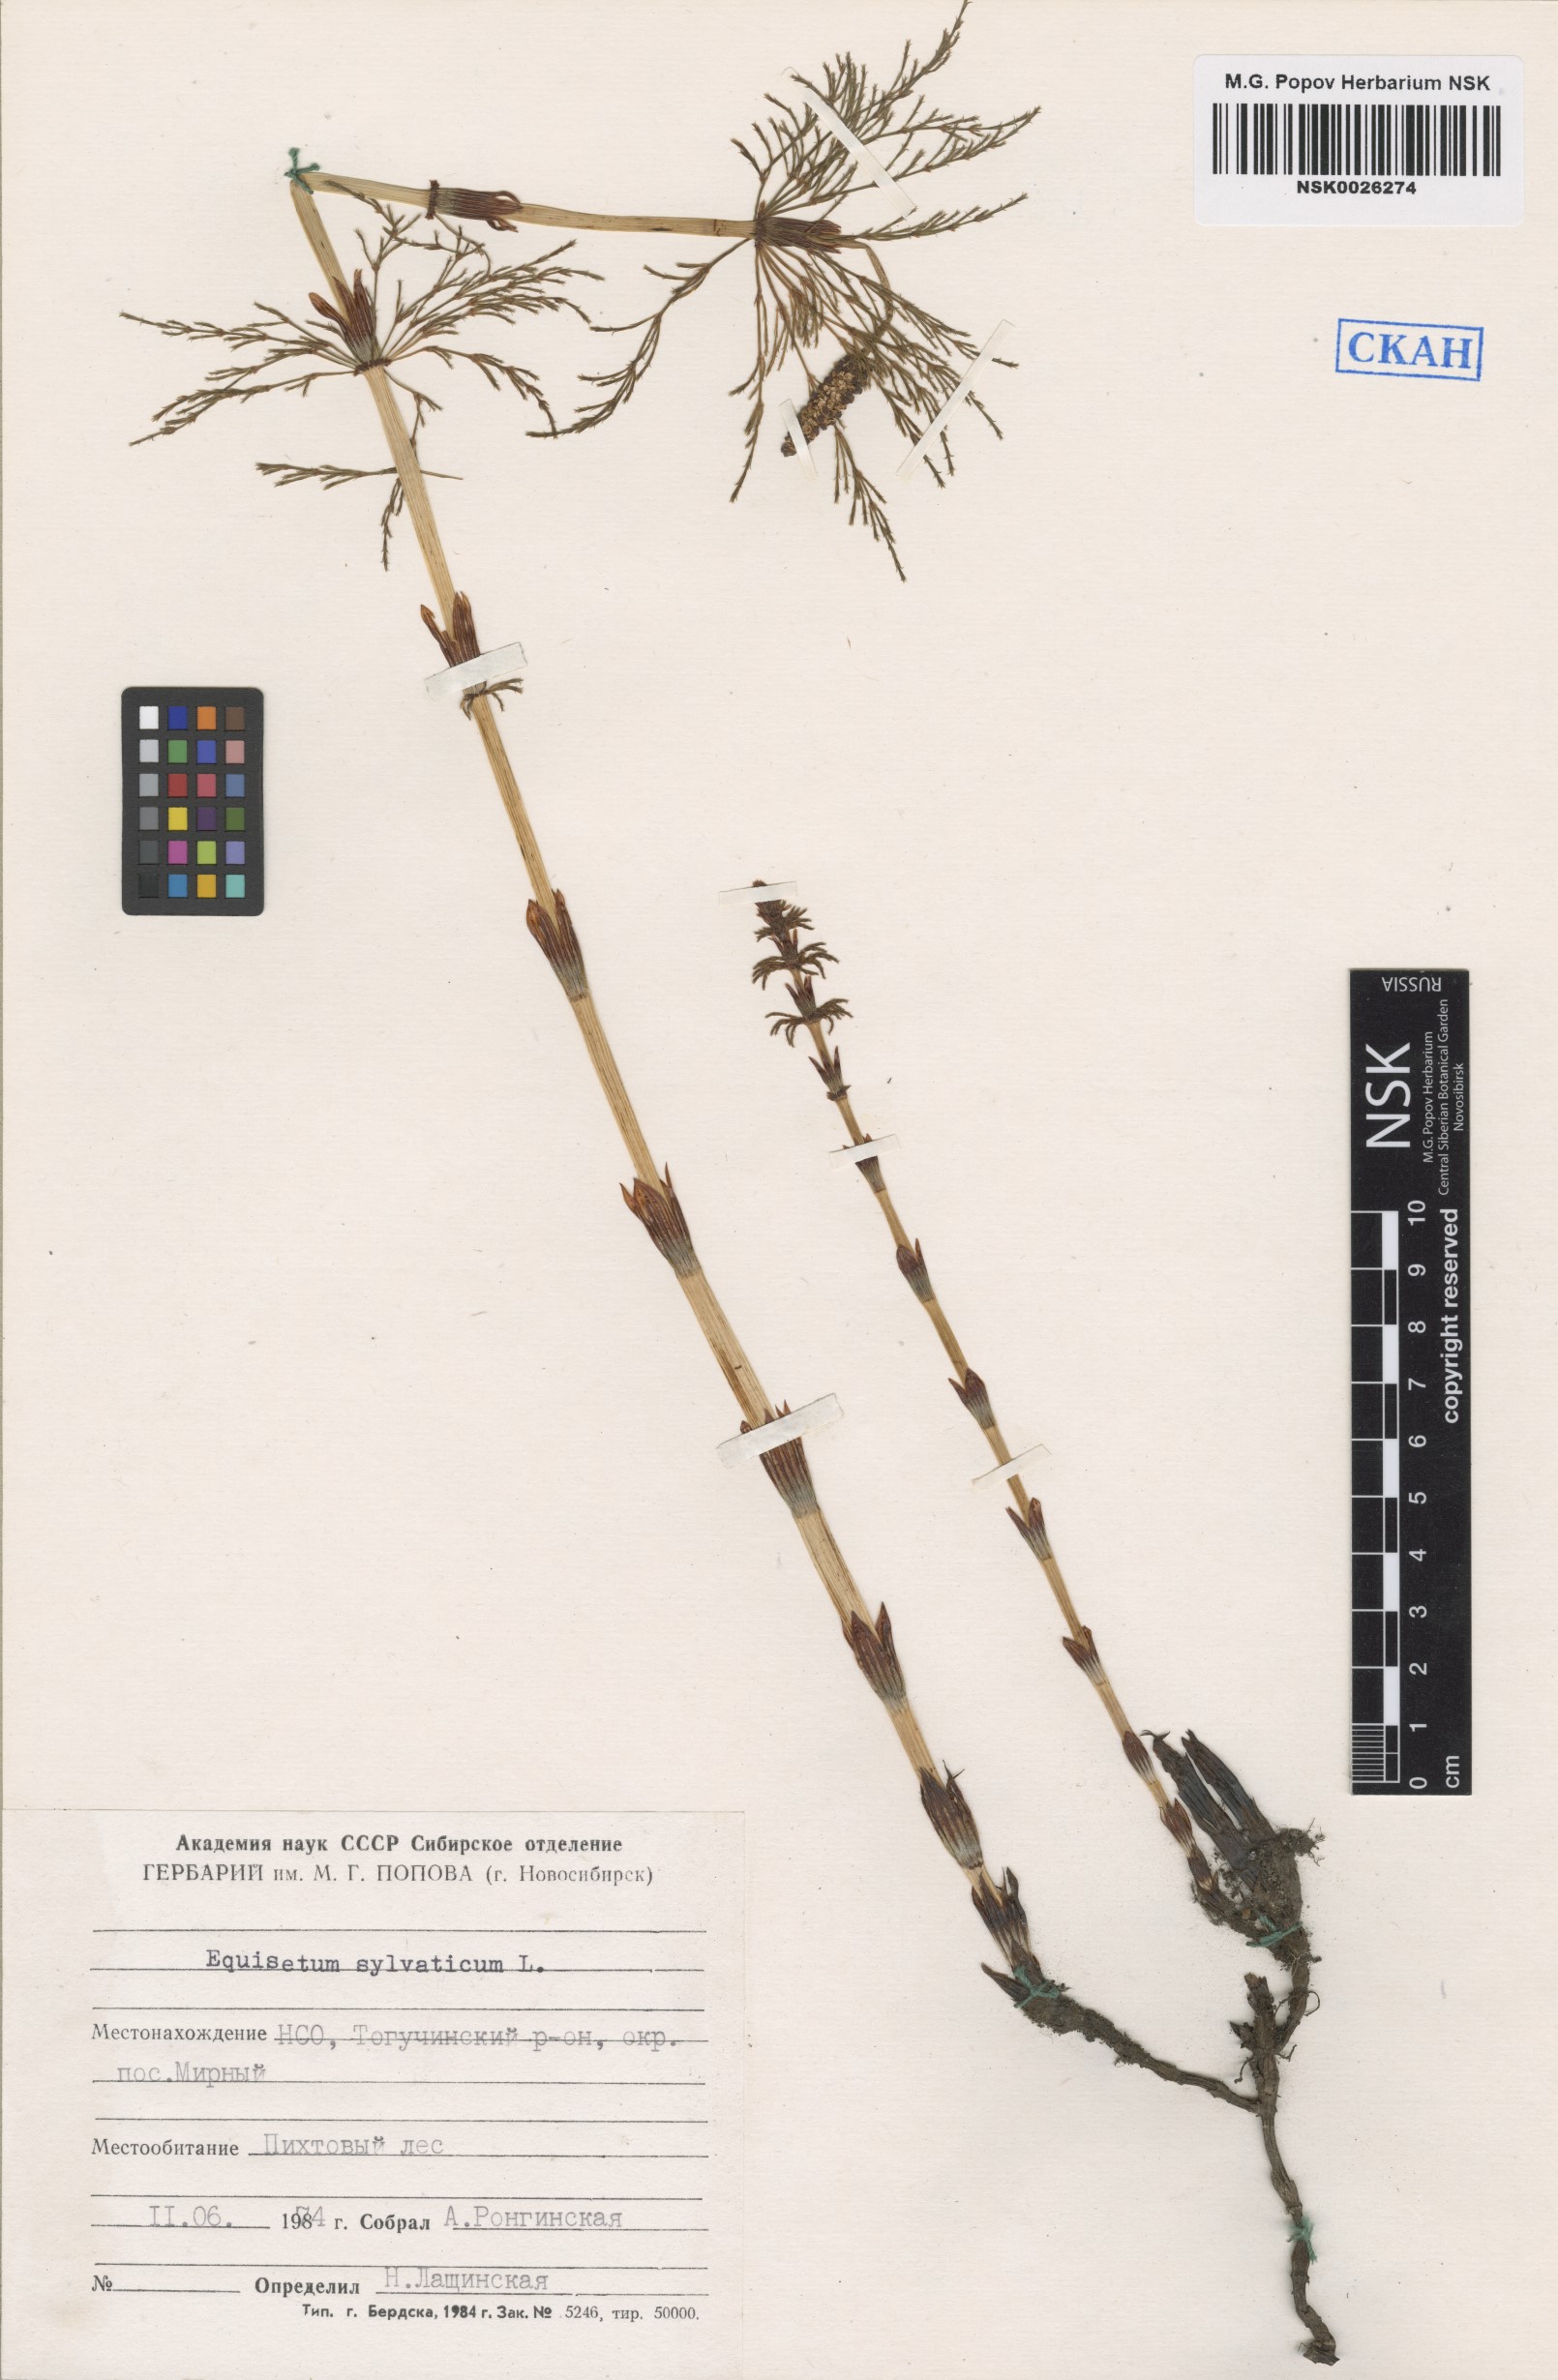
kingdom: Plantae
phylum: Tracheophyta
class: Polypodiopsida
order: Equisetales
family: Equisetaceae
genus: Equisetum
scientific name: Equisetum sylvaticum
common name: Wood horsetail
